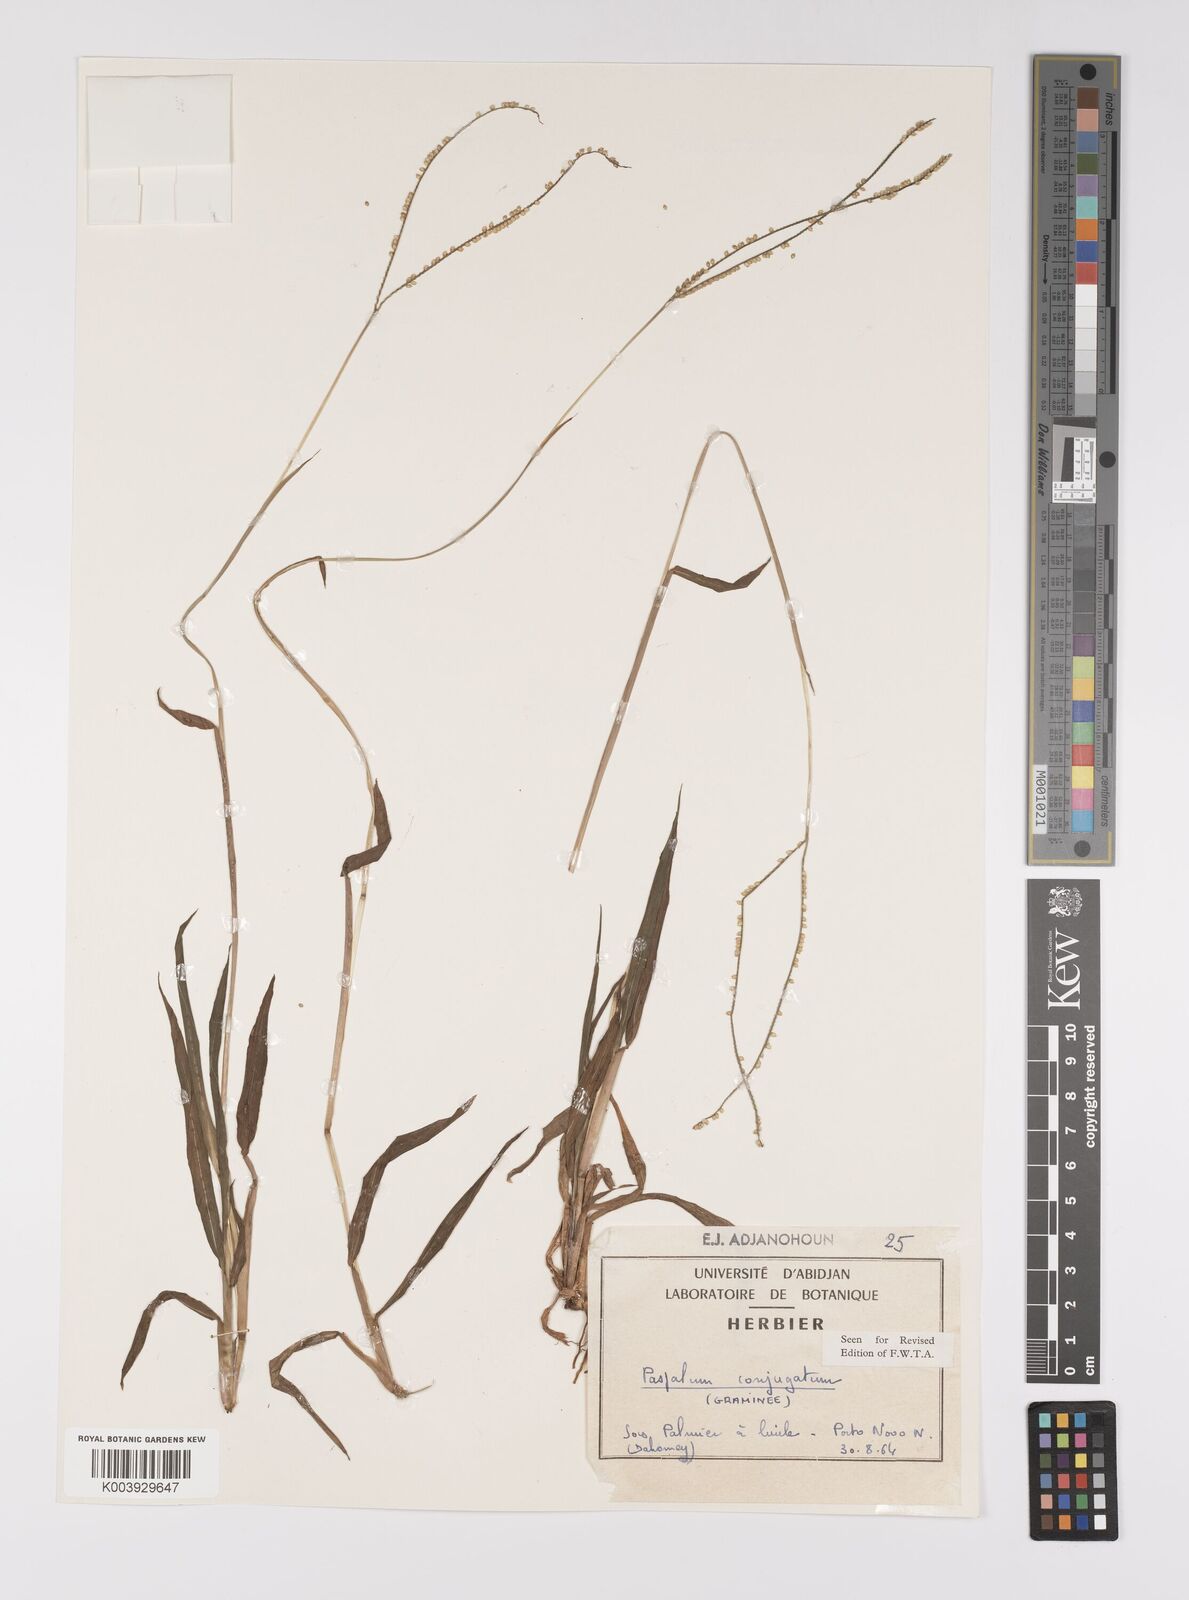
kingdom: Plantae
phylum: Tracheophyta
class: Liliopsida
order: Poales
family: Poaceae
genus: Paspalum
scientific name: Paspalum conjugatum
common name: Hilograss
